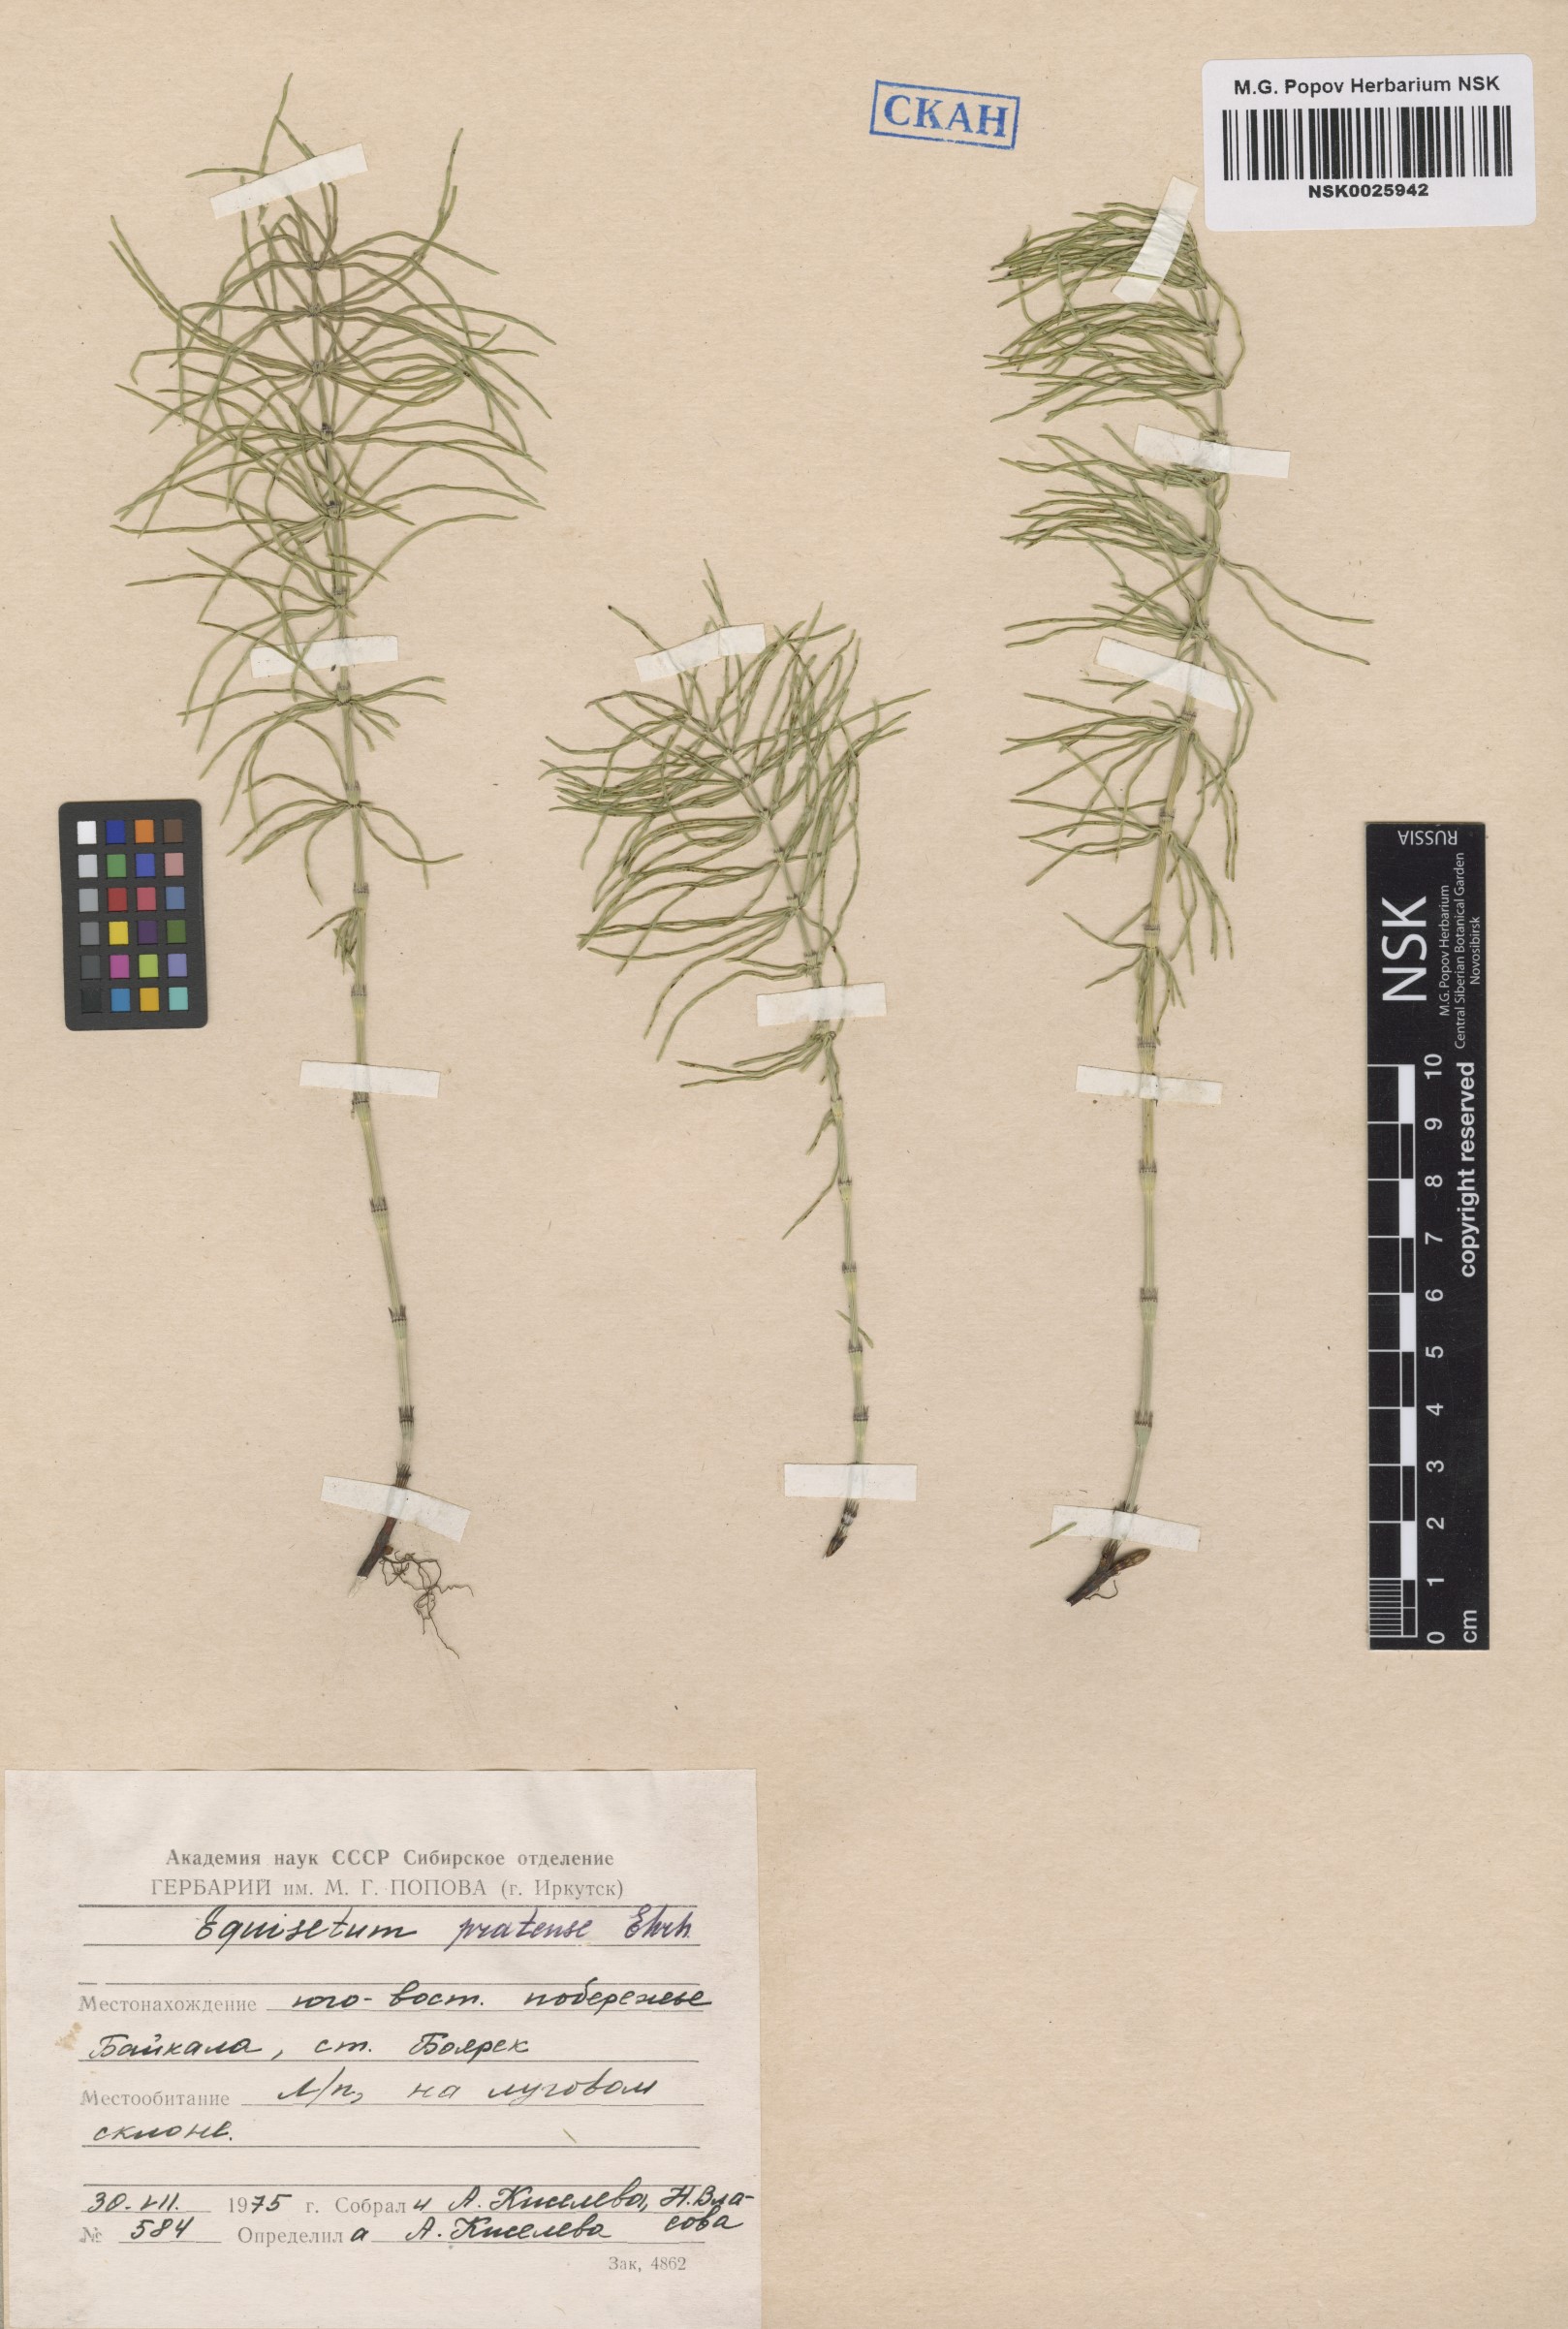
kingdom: Plantae
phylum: Tracheophyta
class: Polypodiopsida
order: Equisetales
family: Equisetaceae
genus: Equisetum
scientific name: Equisetum pratense
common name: Meadow horsetail
